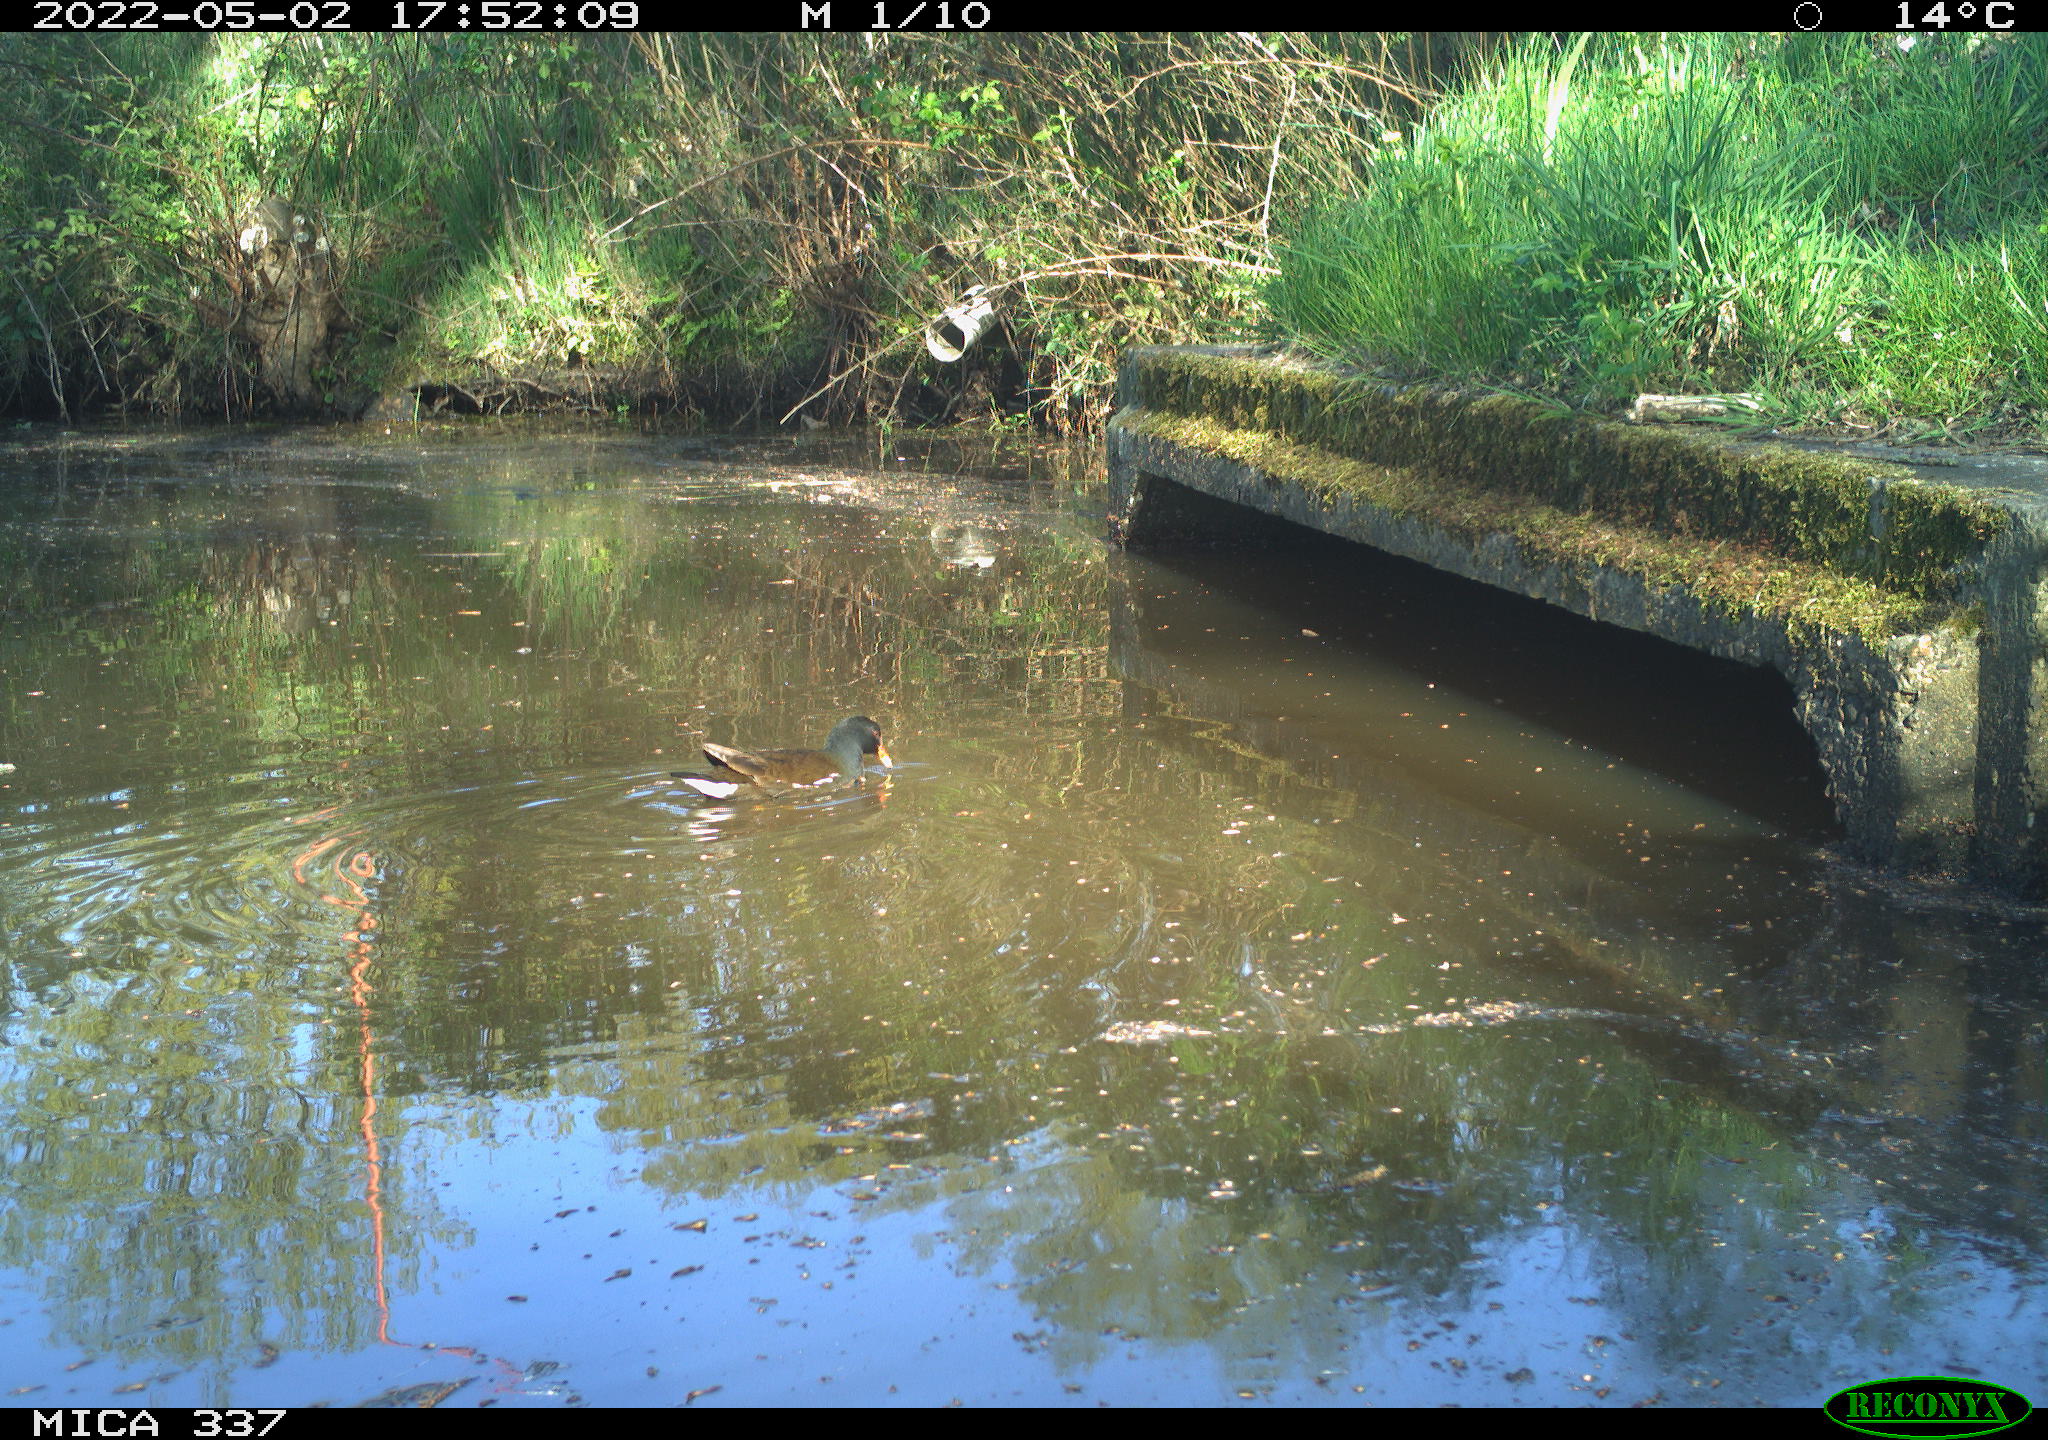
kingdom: Animalia
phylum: Chordata
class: Aves
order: Gruiformes
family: Rallidae
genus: Gallinula
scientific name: Gallinula chloropus
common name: Common moorhen
